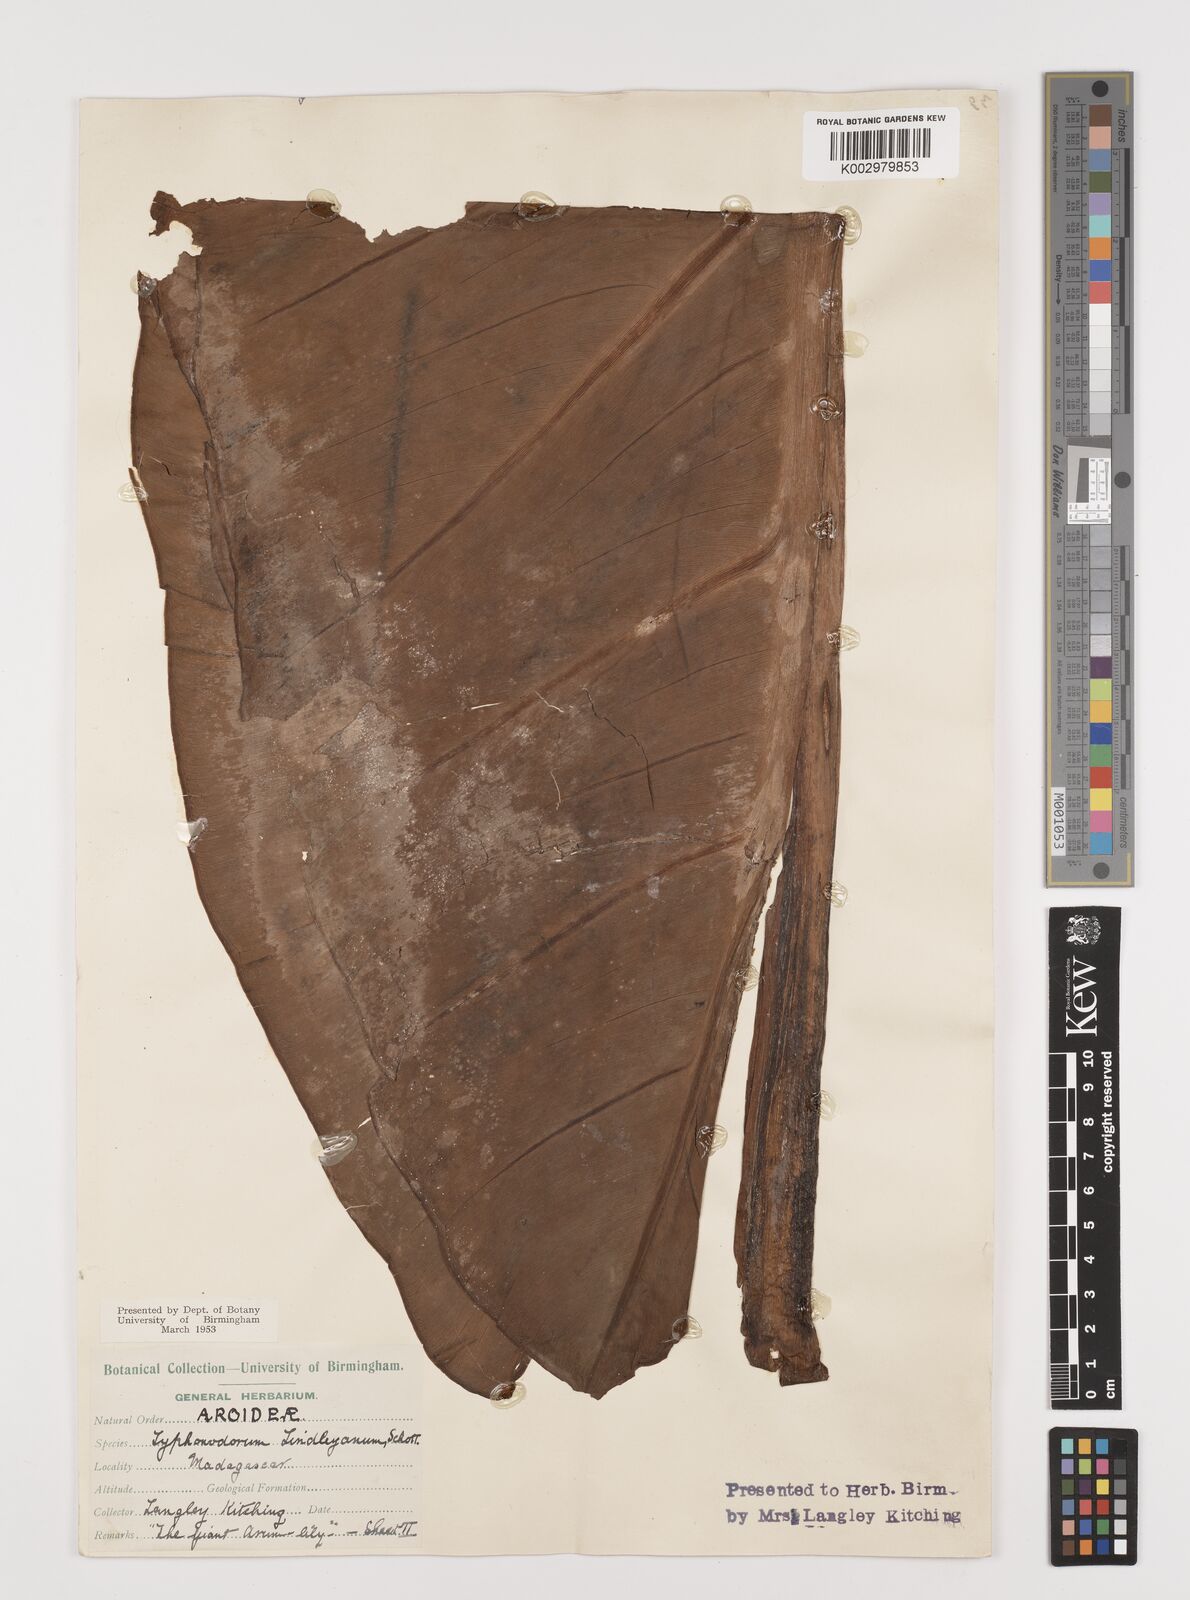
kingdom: Plantae
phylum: Tracheophyta
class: Liliopsida
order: Alismatales
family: Araceae
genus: Typhonodorum
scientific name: Typhonodorum lindleyanum
